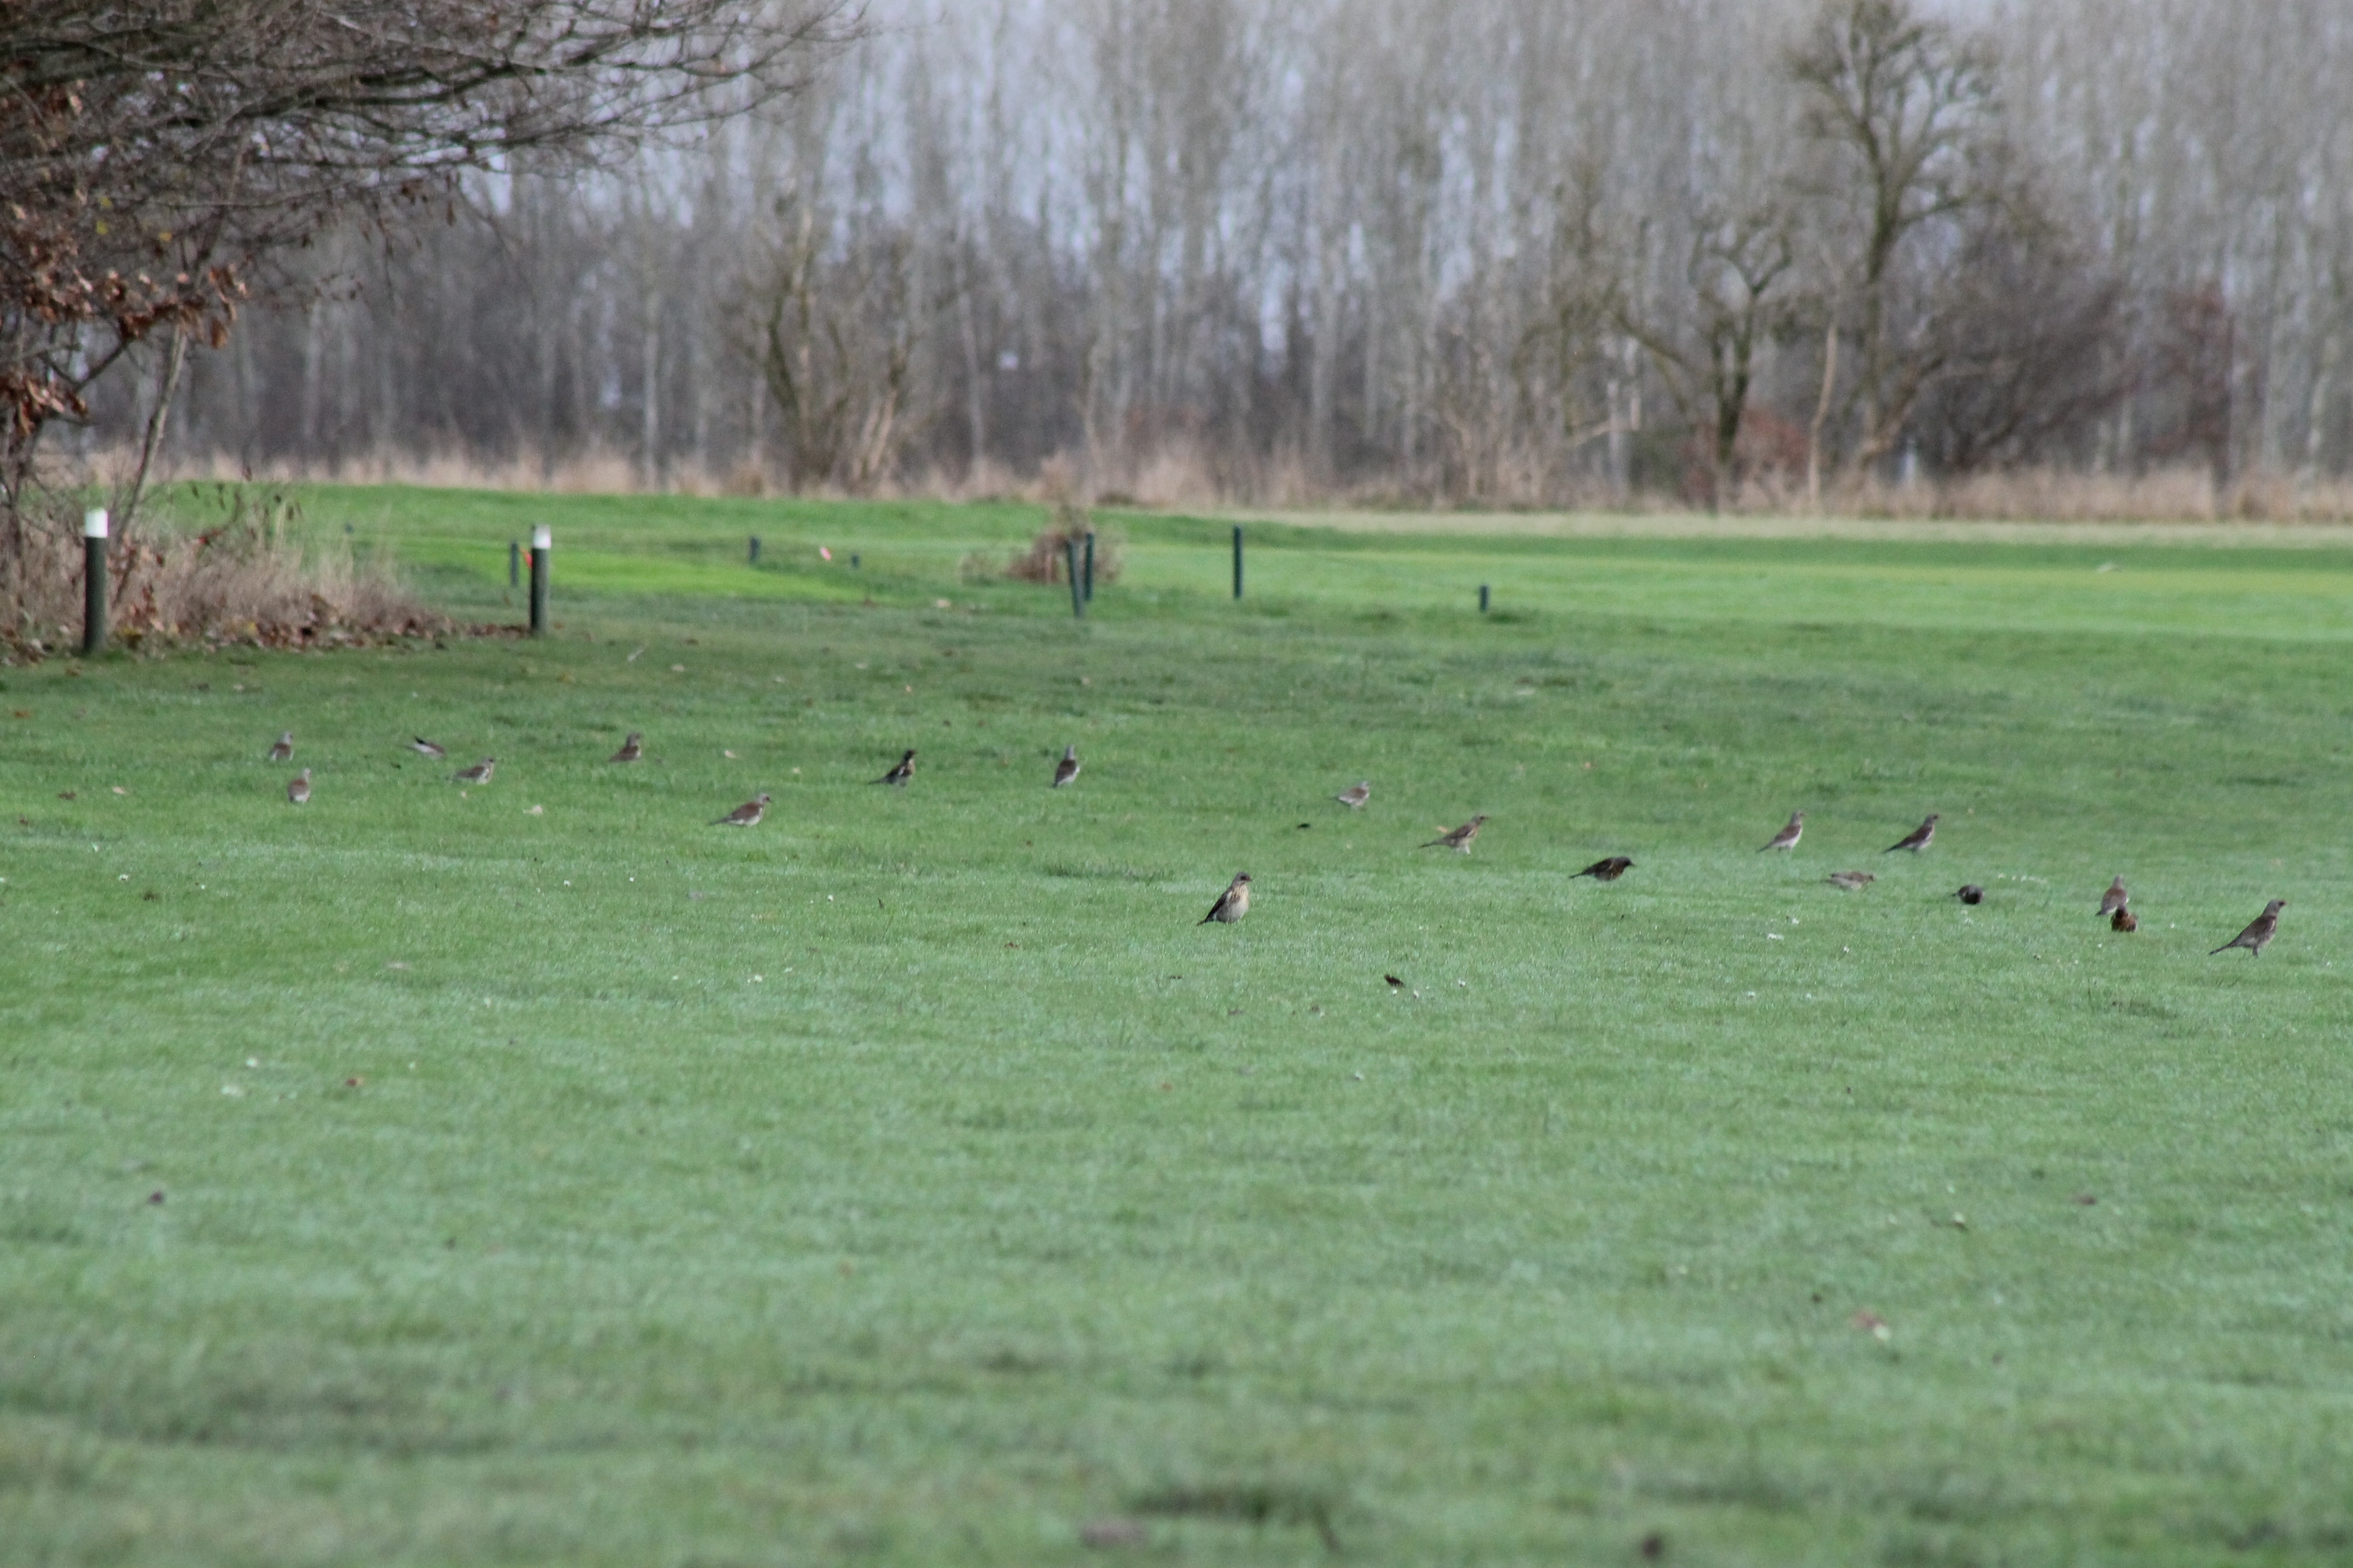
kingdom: Animalia
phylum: Chordata
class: Aves
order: Passeriformes
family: Turdidae
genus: Turdus
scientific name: Turdus pilaris
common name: Sjagger
